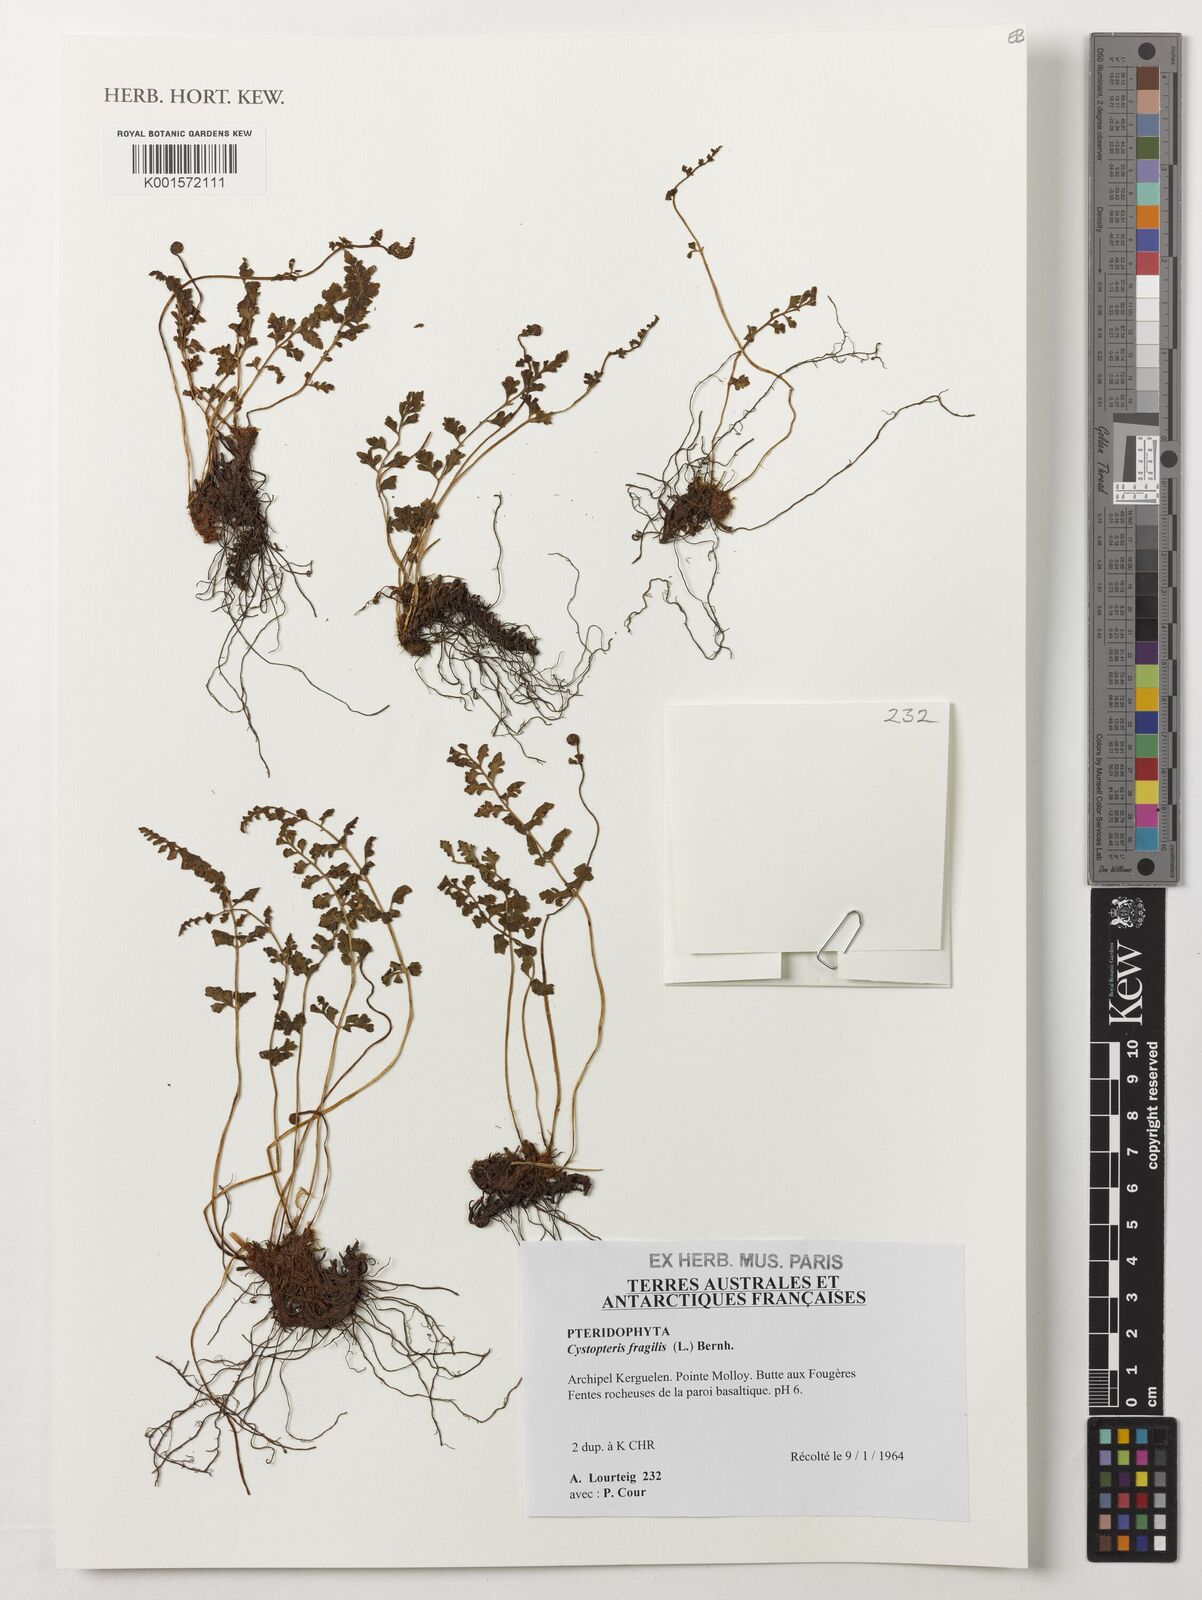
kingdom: Plantae
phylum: Tracheophyta
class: Polypodiopsida
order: Polypodiales
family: Cystopteridaceae
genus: Cystopteris
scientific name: Cystopteris fragilis
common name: Brittle bladder fern
